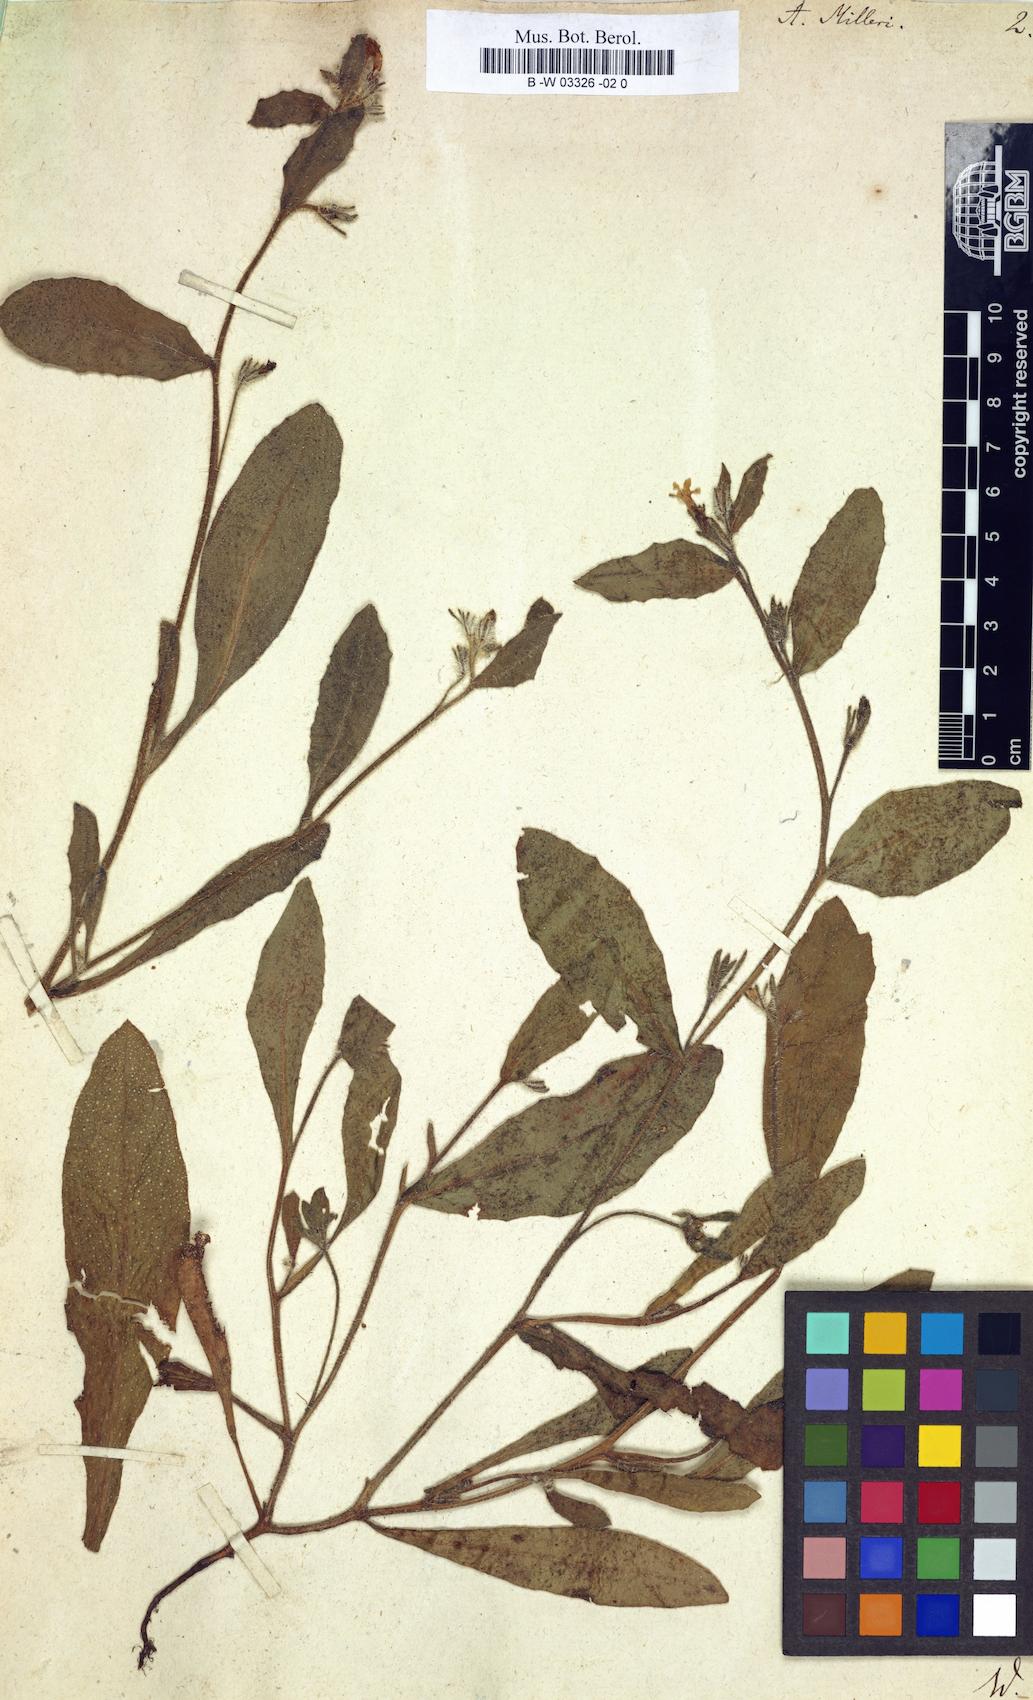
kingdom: Plantae
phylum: Tracheophyta
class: Magnoliopsida
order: Boraginales
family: Boraginaceae
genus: Anchusa
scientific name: Anchusa milleri
